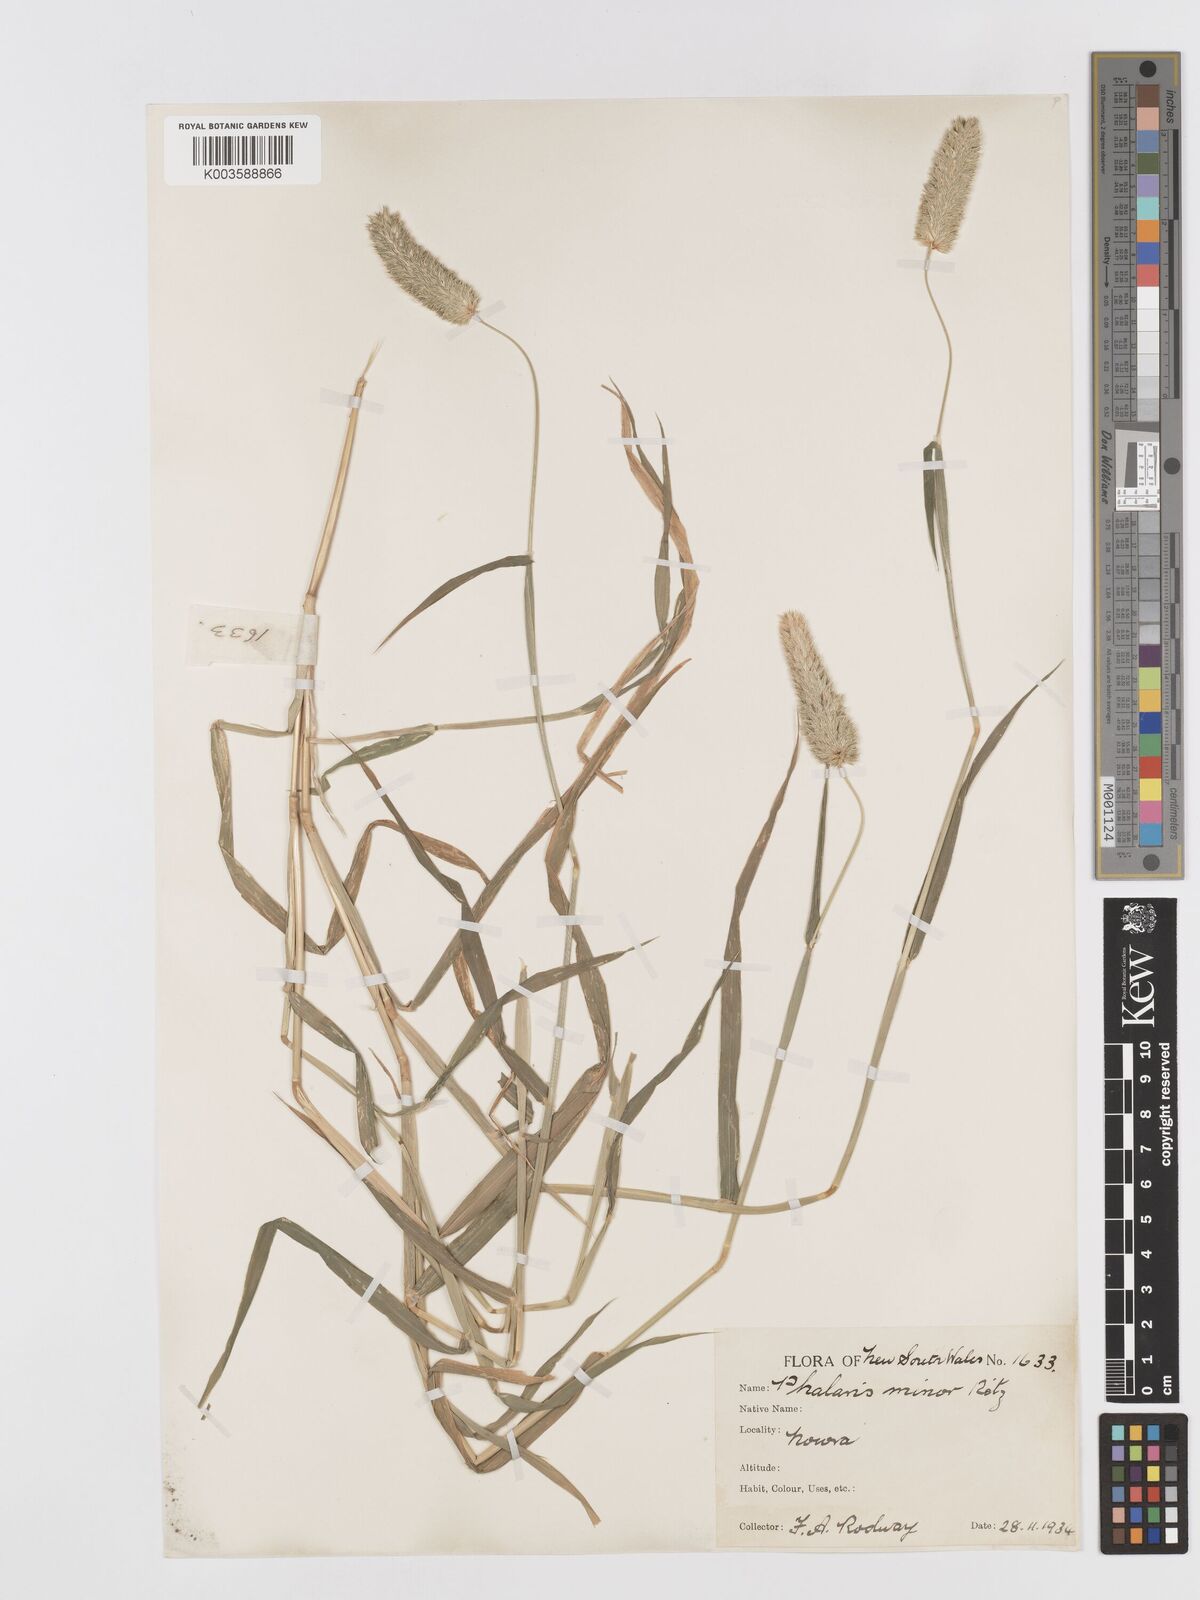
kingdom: Plantae
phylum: Tracheophyta
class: Liliopsida
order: Poales
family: Poaceae
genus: Phalaris
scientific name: Phalaris minor
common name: Littleseed canarygrass
